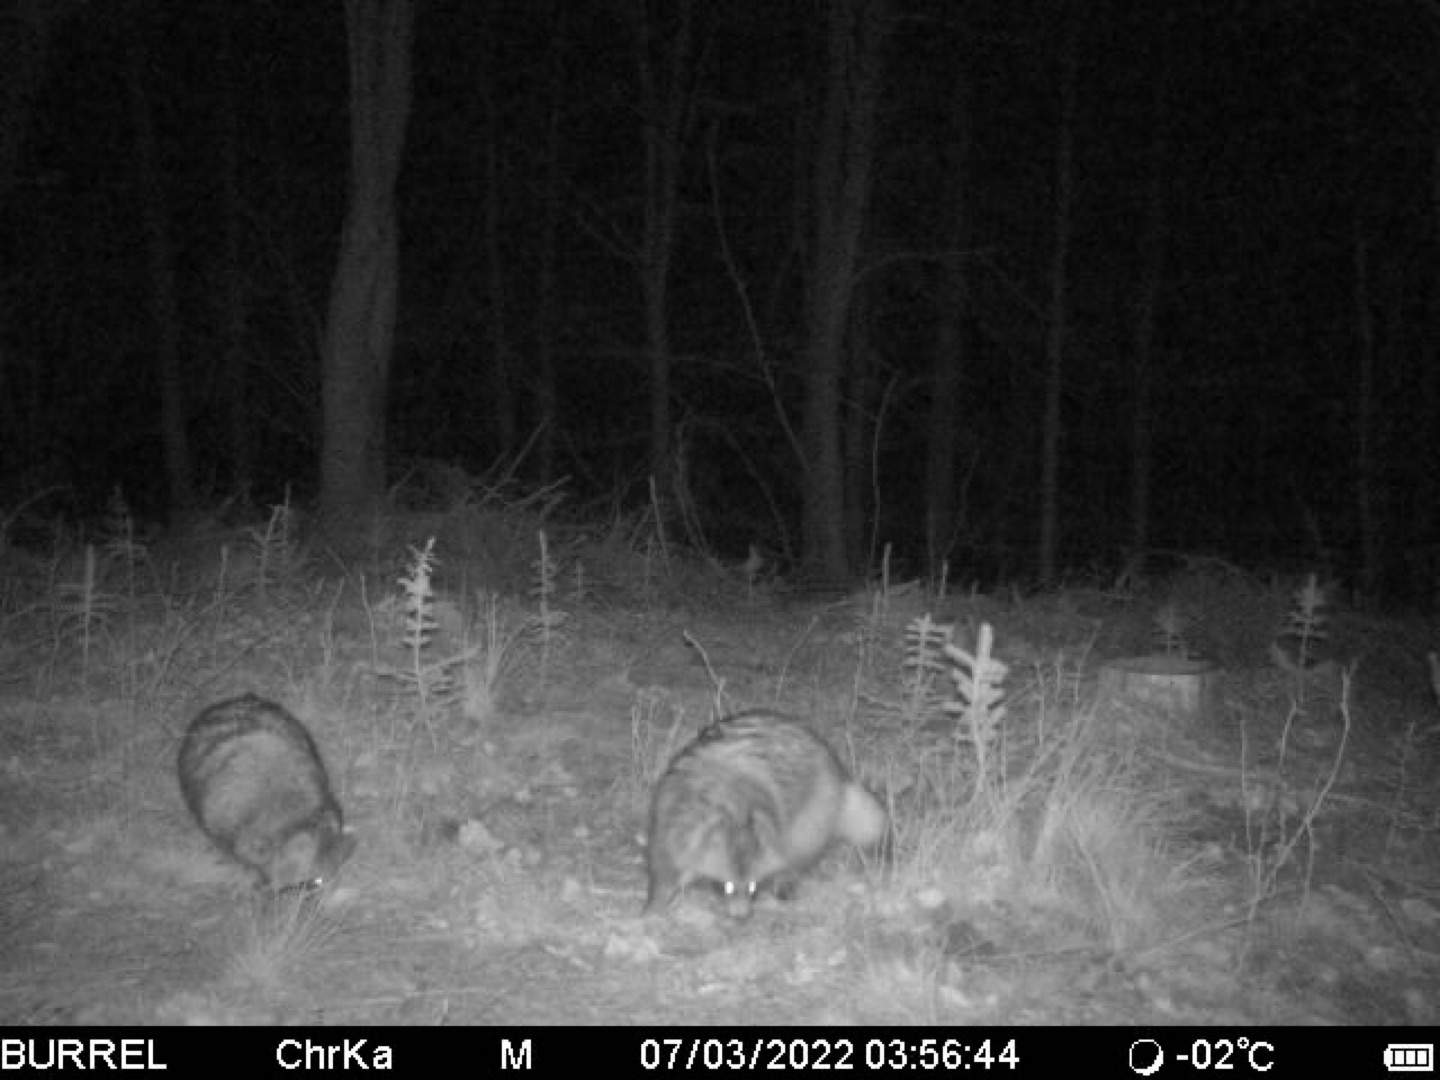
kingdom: Animalia
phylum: Chordata
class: Mammalia
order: Carnivora
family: Canidae
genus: Nyctereutes
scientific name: Nyctereutes procyonoides
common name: Mårhund
